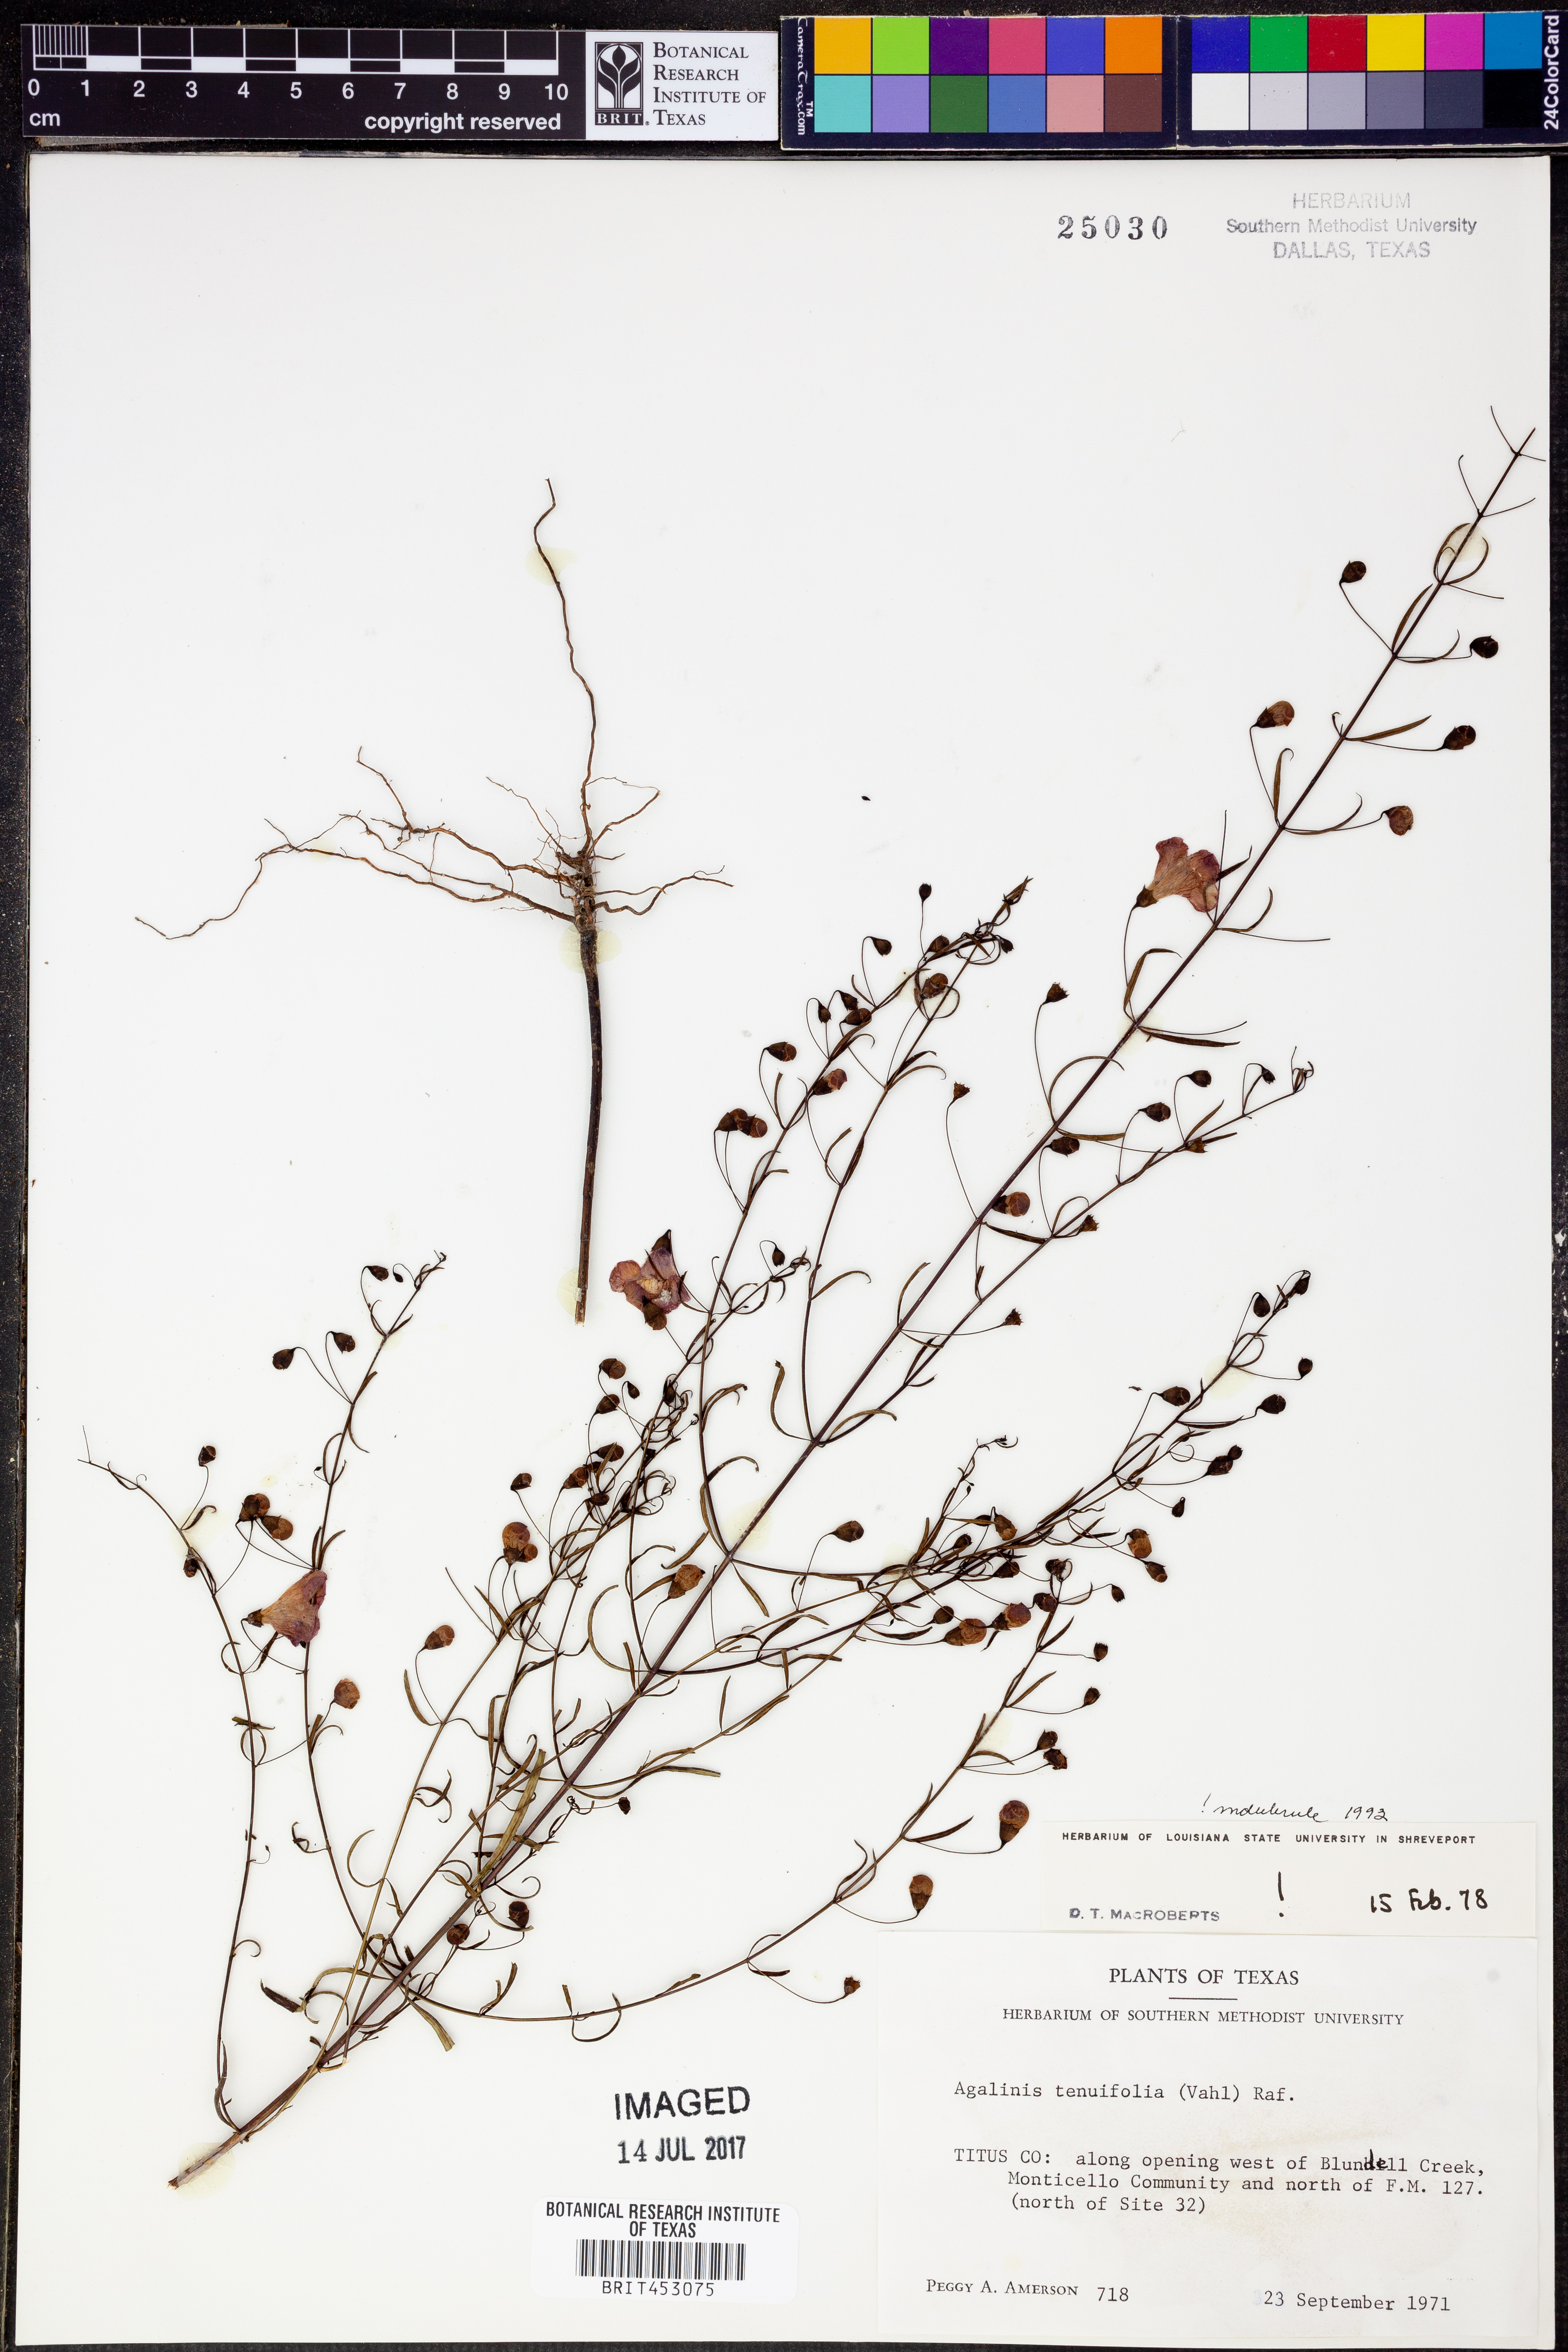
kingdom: Plantae
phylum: Tracheophyta
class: Magnoliopsida
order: Lamiales
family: Orobanchaceae
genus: Agalinis
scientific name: Agalinis tenuifolia
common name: Slender agalinis
